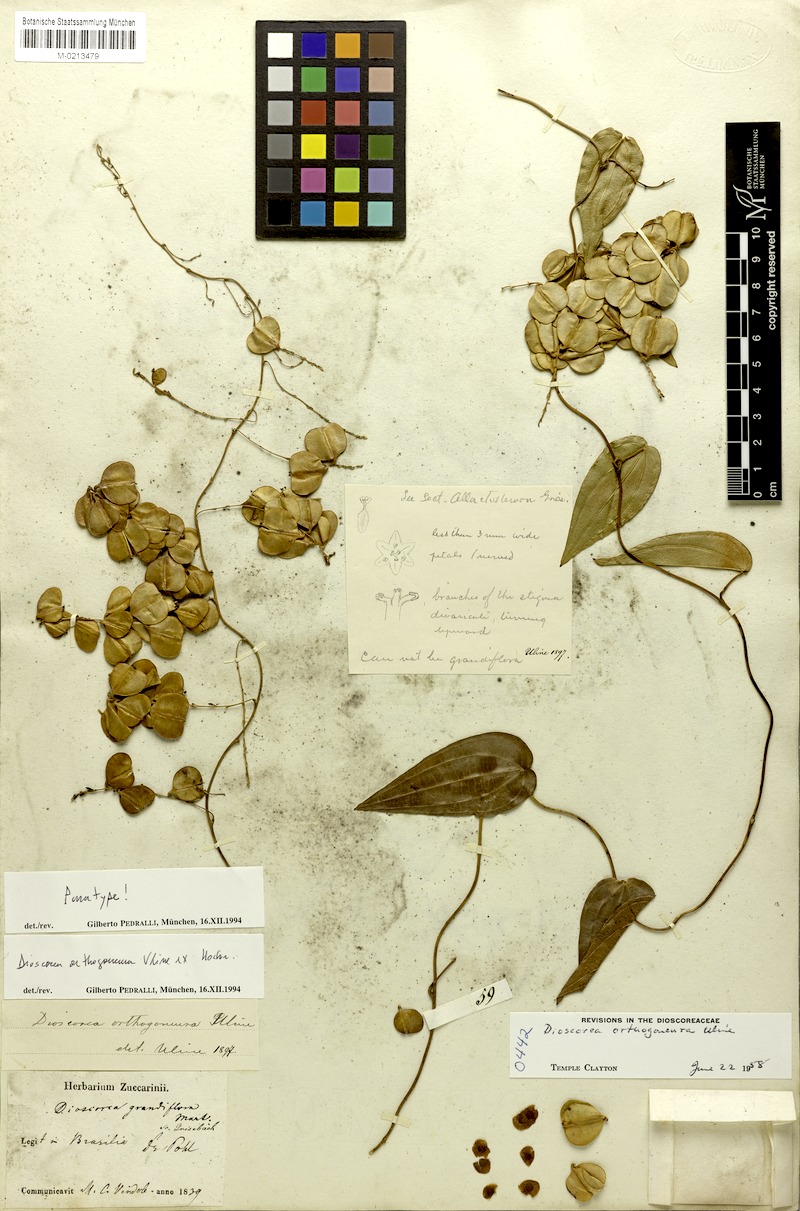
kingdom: Plantae
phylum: Tracheophyta
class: Liliopsida
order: Dioscoreales
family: Dioscoreaceae
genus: Dioscorea
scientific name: Dioscorea orthogoneura
